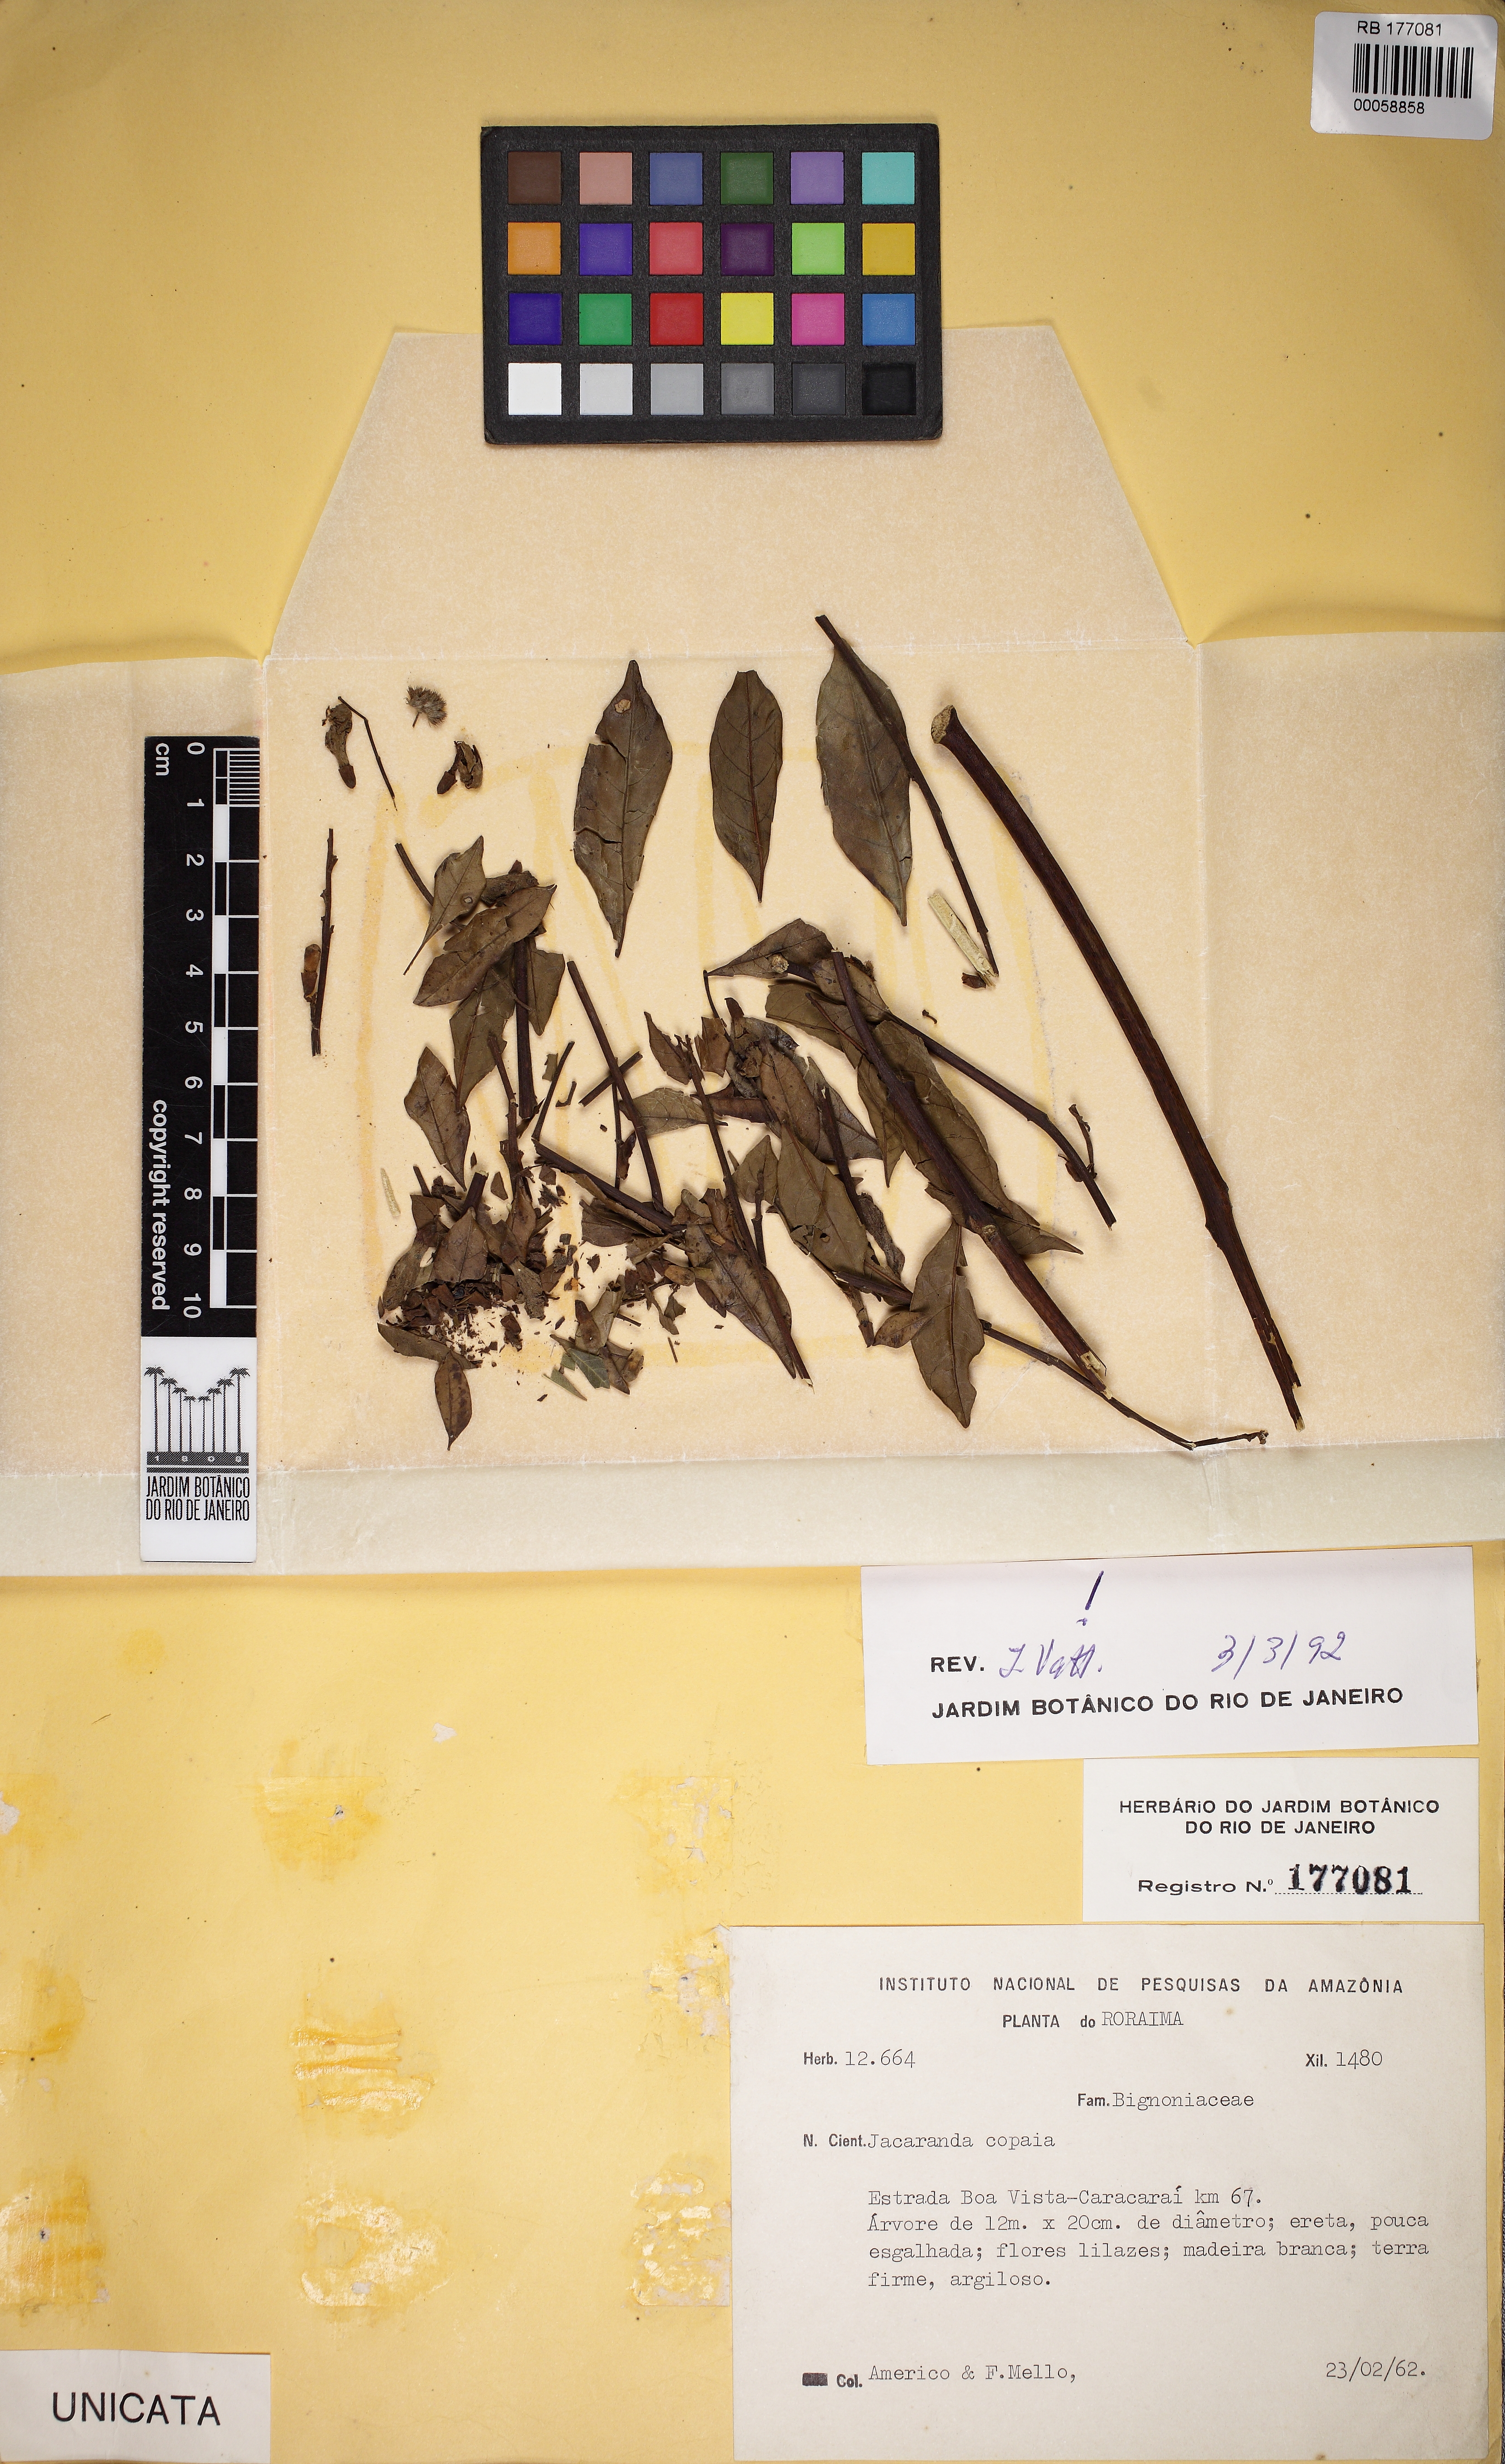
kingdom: Plantae
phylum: Tracheophyta
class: Magnoliopsida
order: Lamiales
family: Bignoniaceae
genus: Jacaranda
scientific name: Jacaranda copaia
